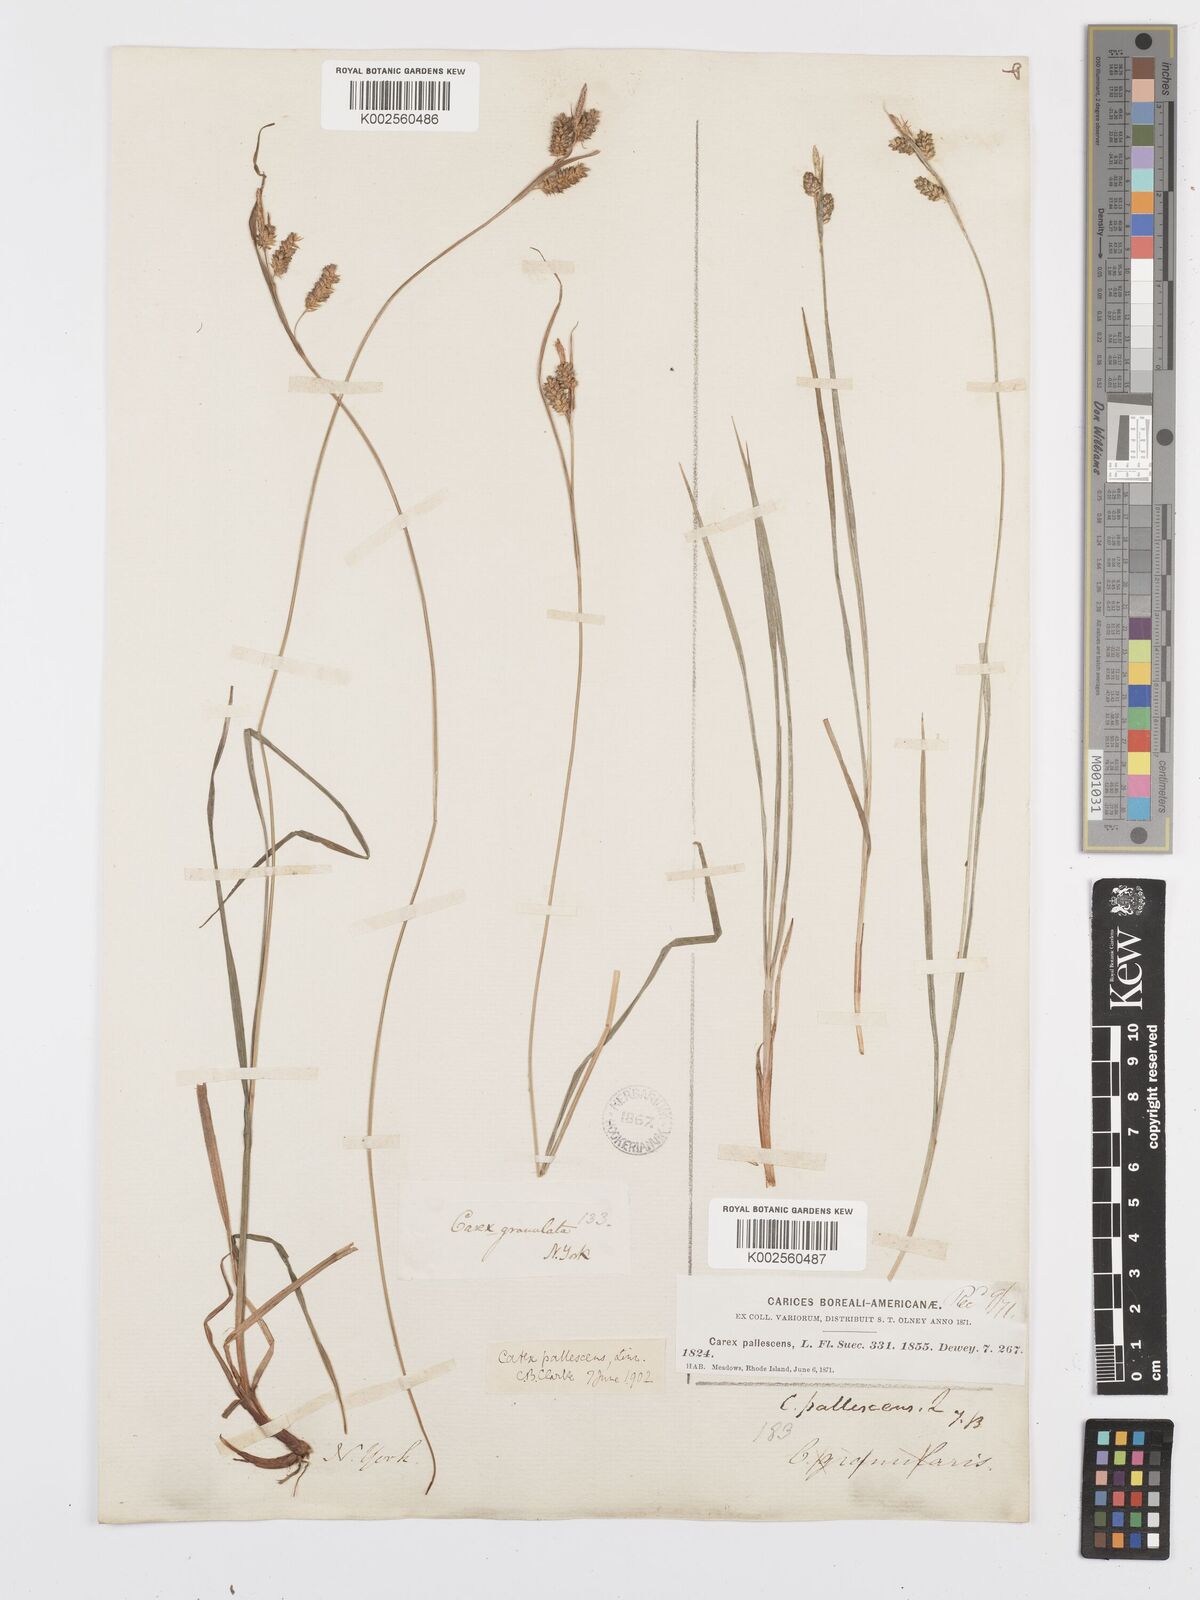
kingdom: Plantae
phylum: Tracheophyta
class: Liliopsida
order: Poales
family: Cyperaceae
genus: Carex
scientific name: Carex pallescens
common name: Pale sedge
